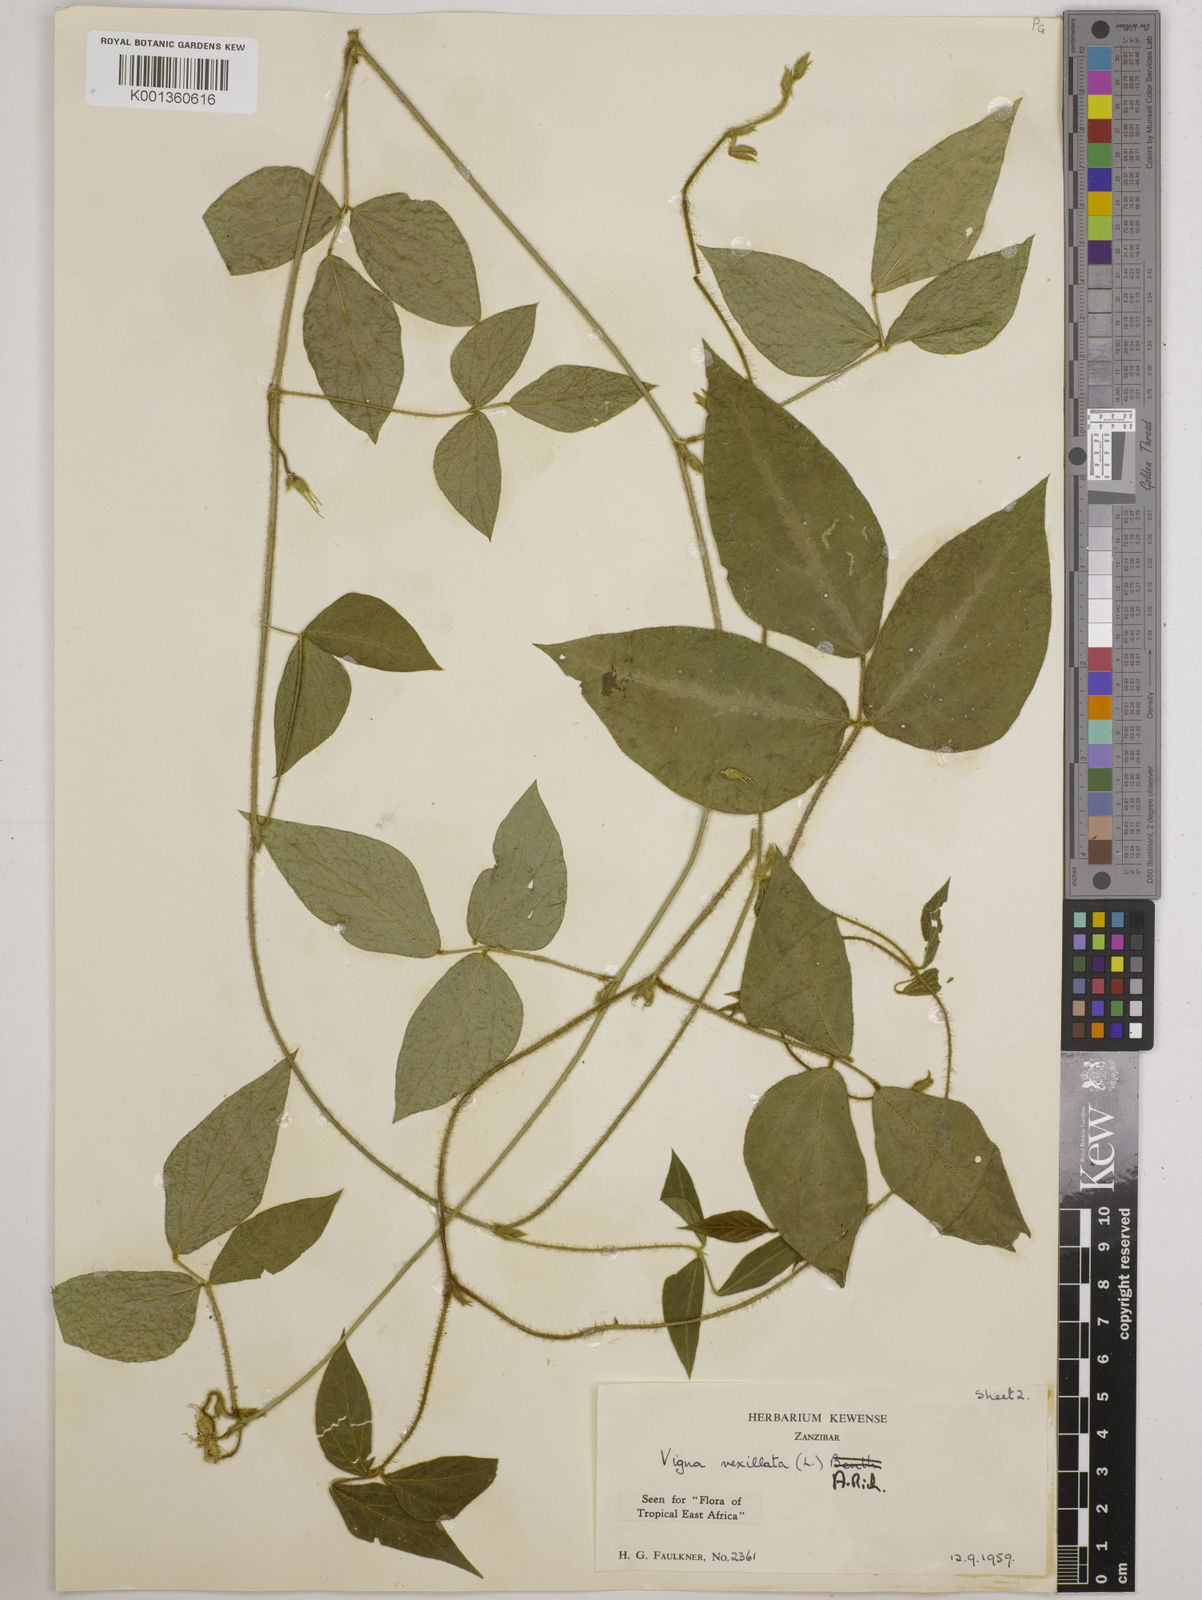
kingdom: Plantae
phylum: Tracheophyta
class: Magnoliopsida
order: Fabales
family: Fabaceae
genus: Vigna
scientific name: Vigna vexillata
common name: Zombi pea
